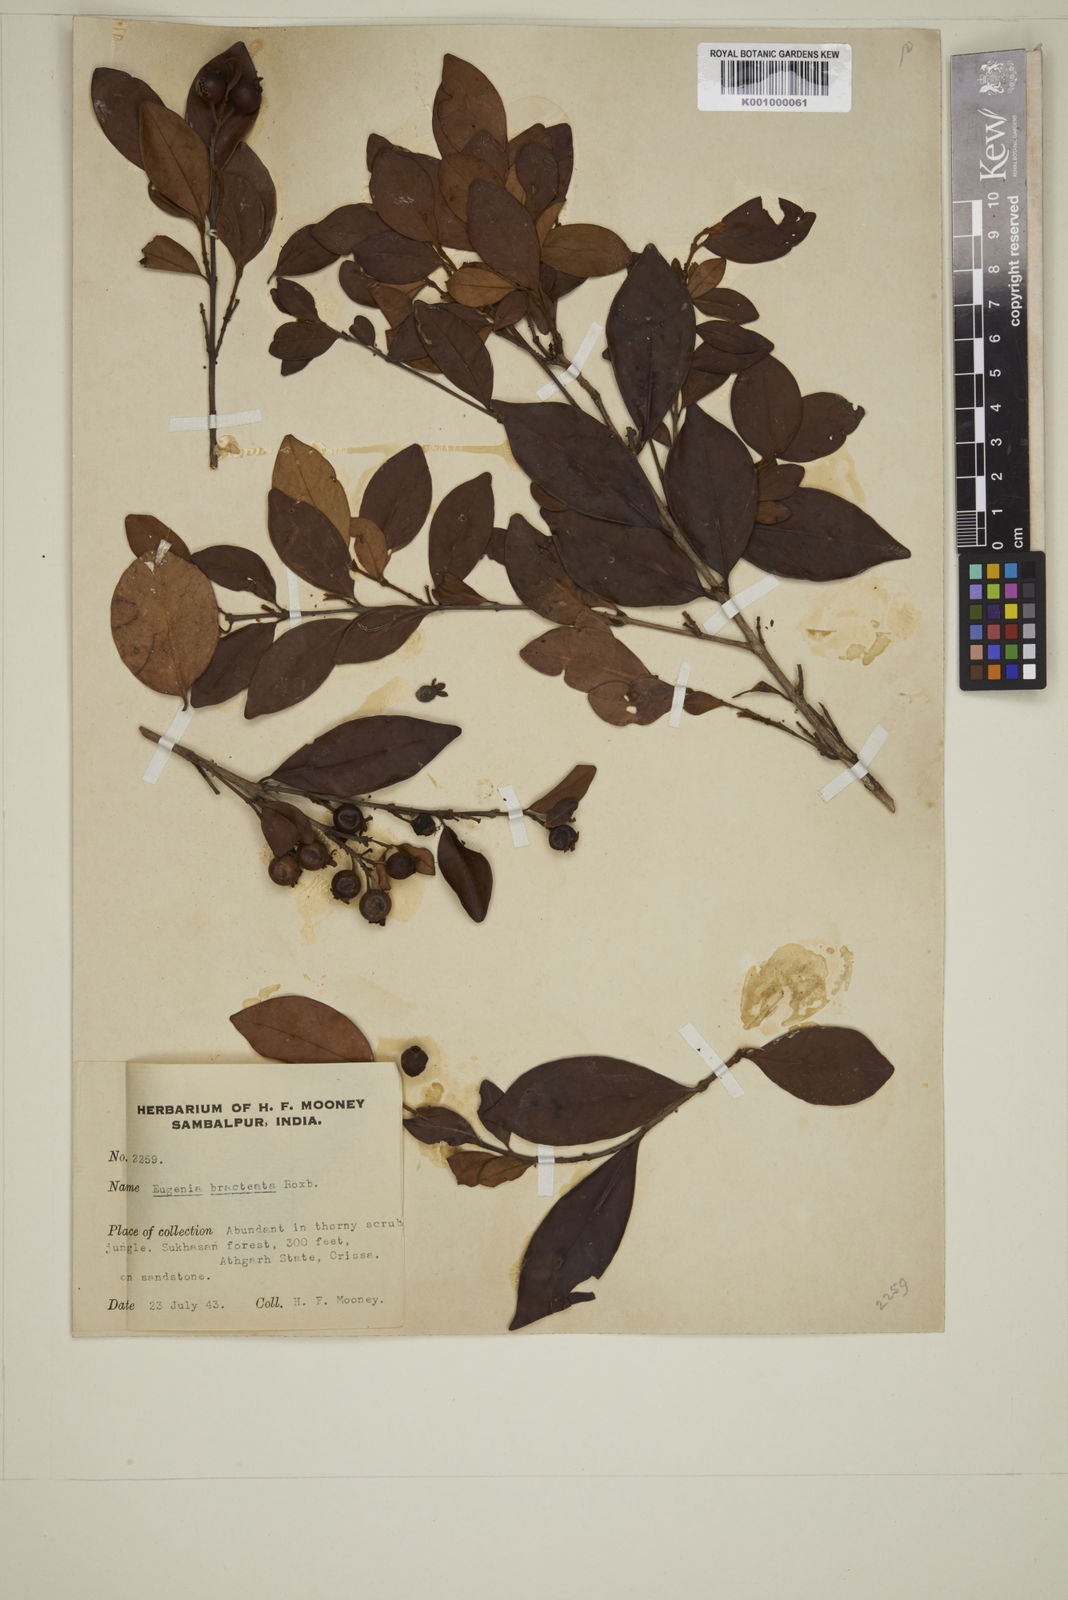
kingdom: Plantae
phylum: Tracheophyta
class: Magnoliopsida
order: Myrtales
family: Myrtaceae
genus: Myrcia
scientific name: Myrcia bracteata
